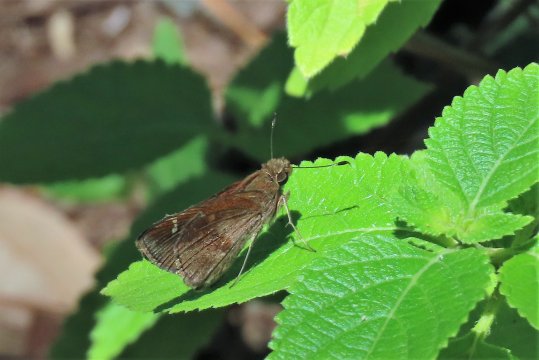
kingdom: Animalia
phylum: Arthropoda
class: Insecta
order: Lepidoptera
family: Hesperiidae
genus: Lerema
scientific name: Lerema accius
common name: Clouded Skipper
